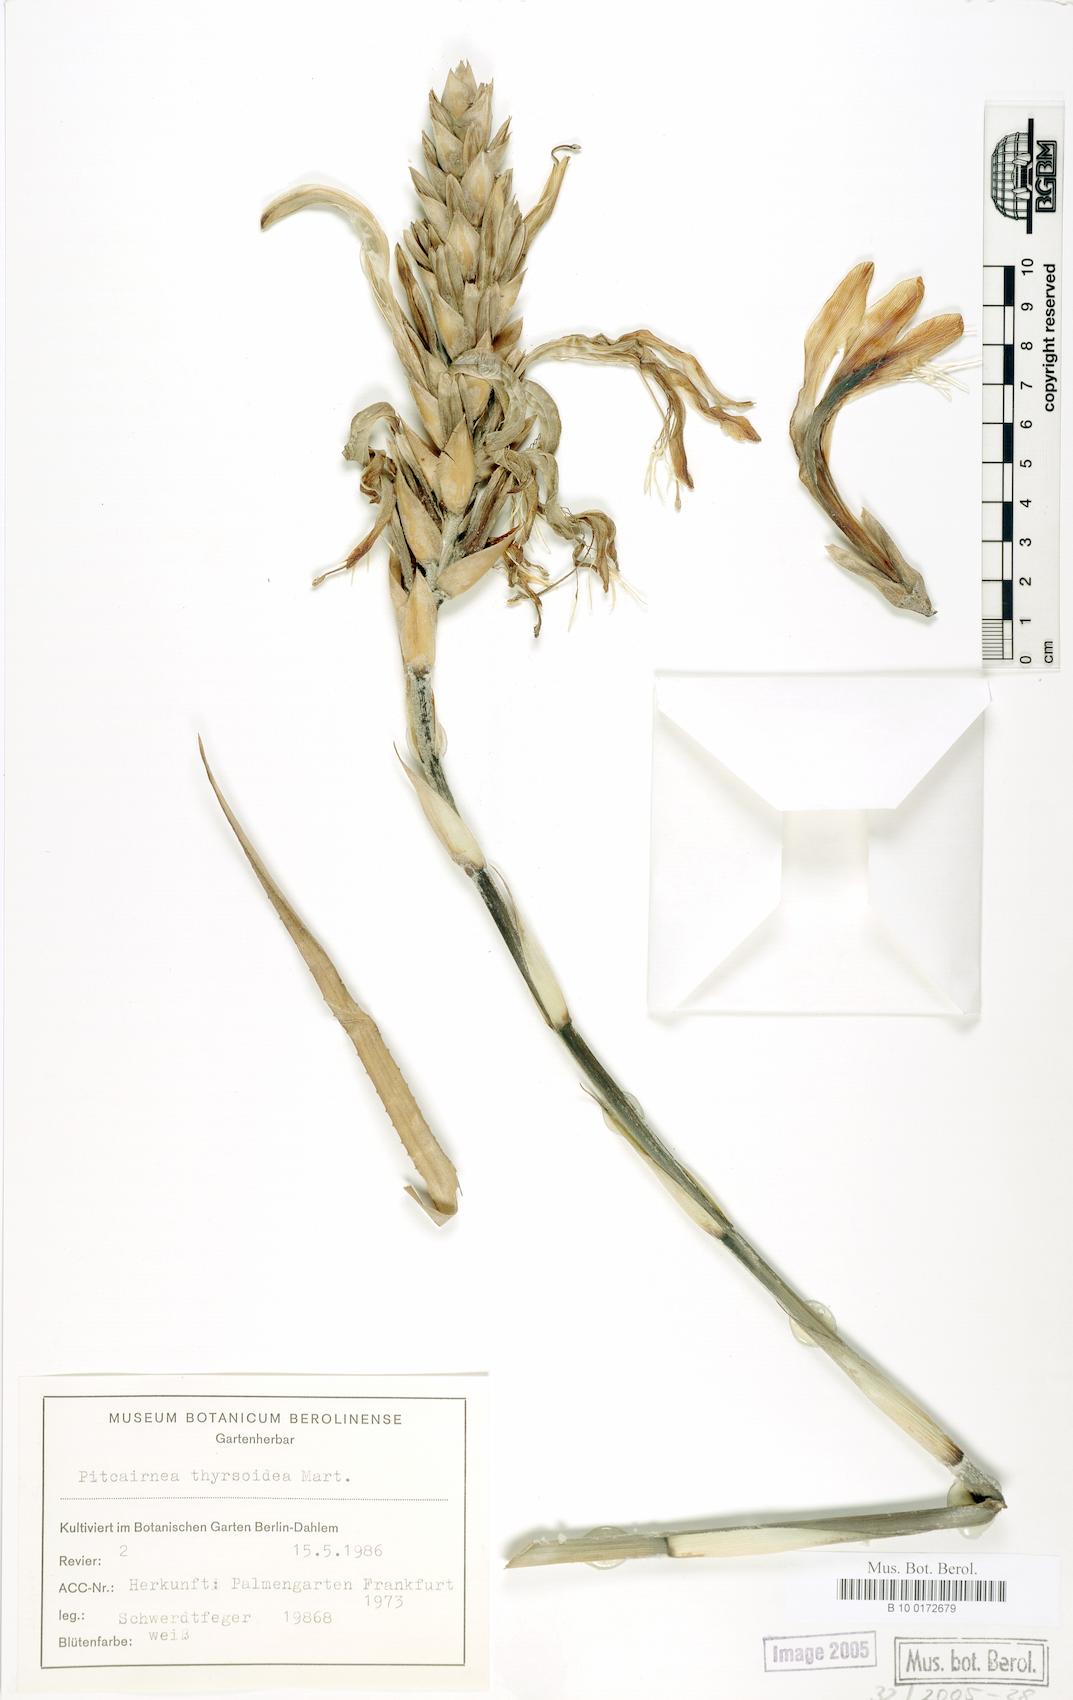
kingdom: Plantae
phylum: Tracheophyta
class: Liliopsida
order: Poales
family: Bromeliaceae
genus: Pitcairnia
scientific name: Pitcairnia
